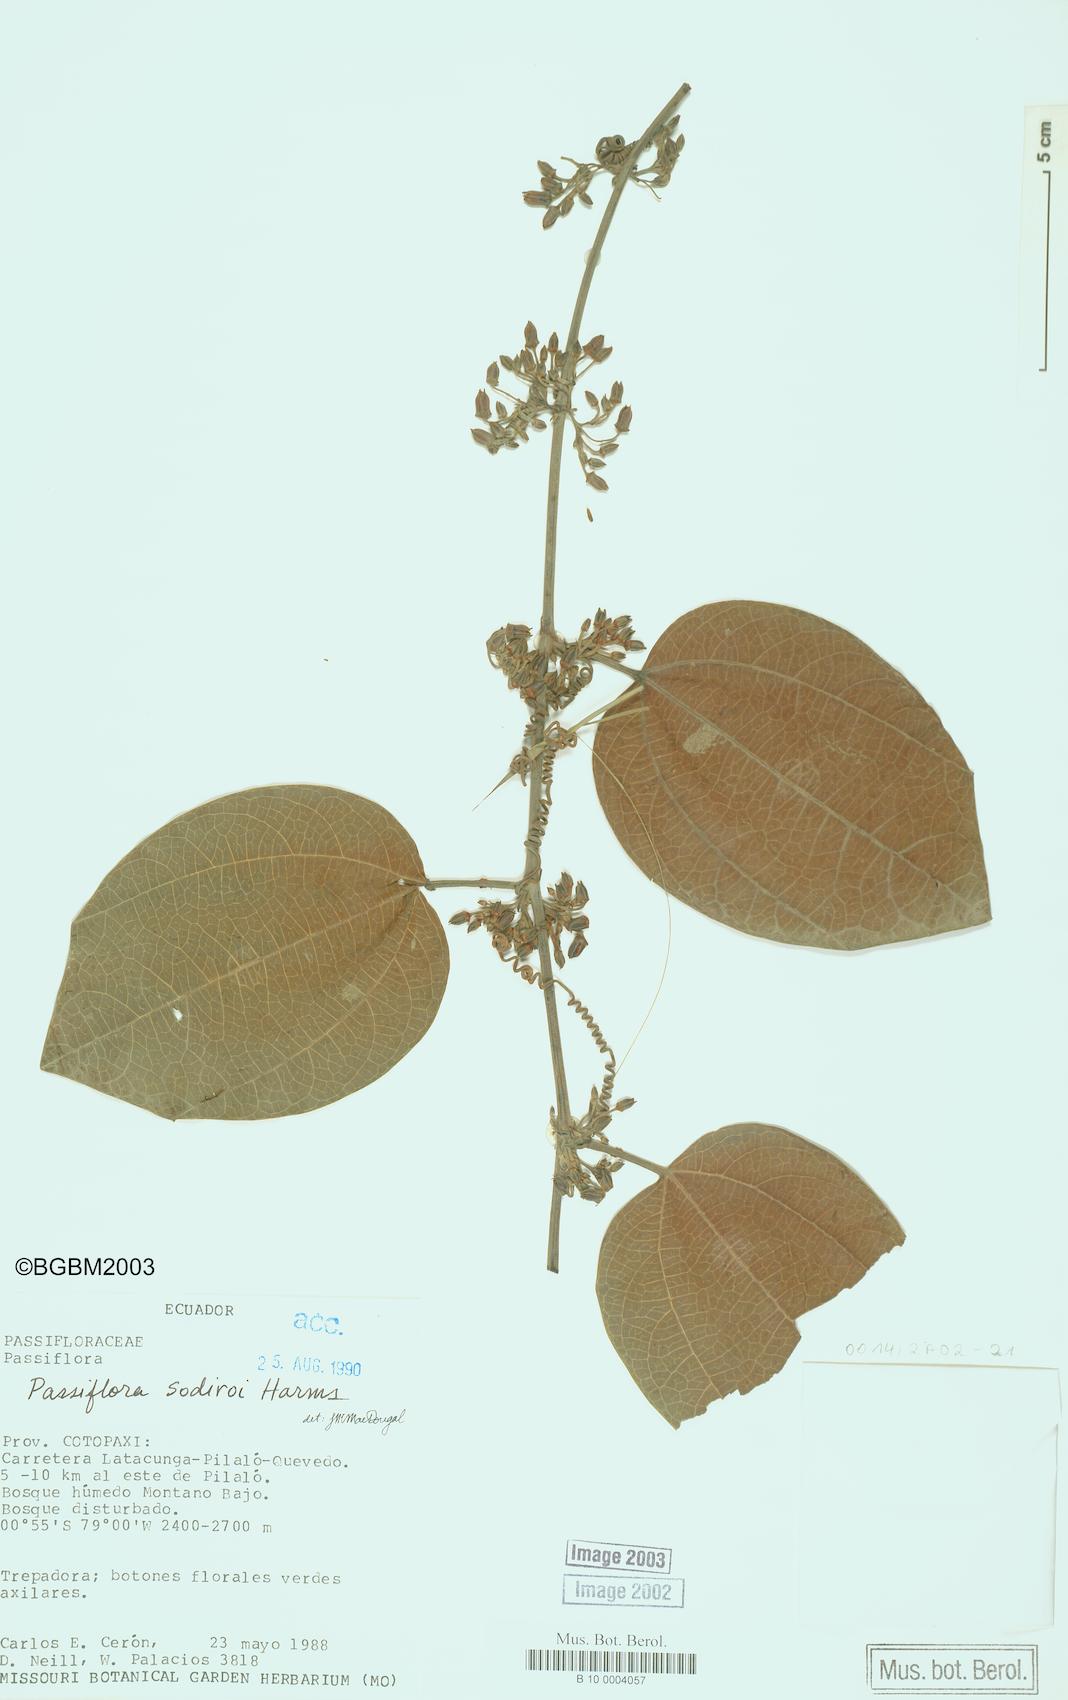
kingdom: Plantae
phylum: Tracheophyta
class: Magnoliopsida
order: Malpighiales
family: Passifloraceae
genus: Passiflora
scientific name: Passiflora sodiroi
